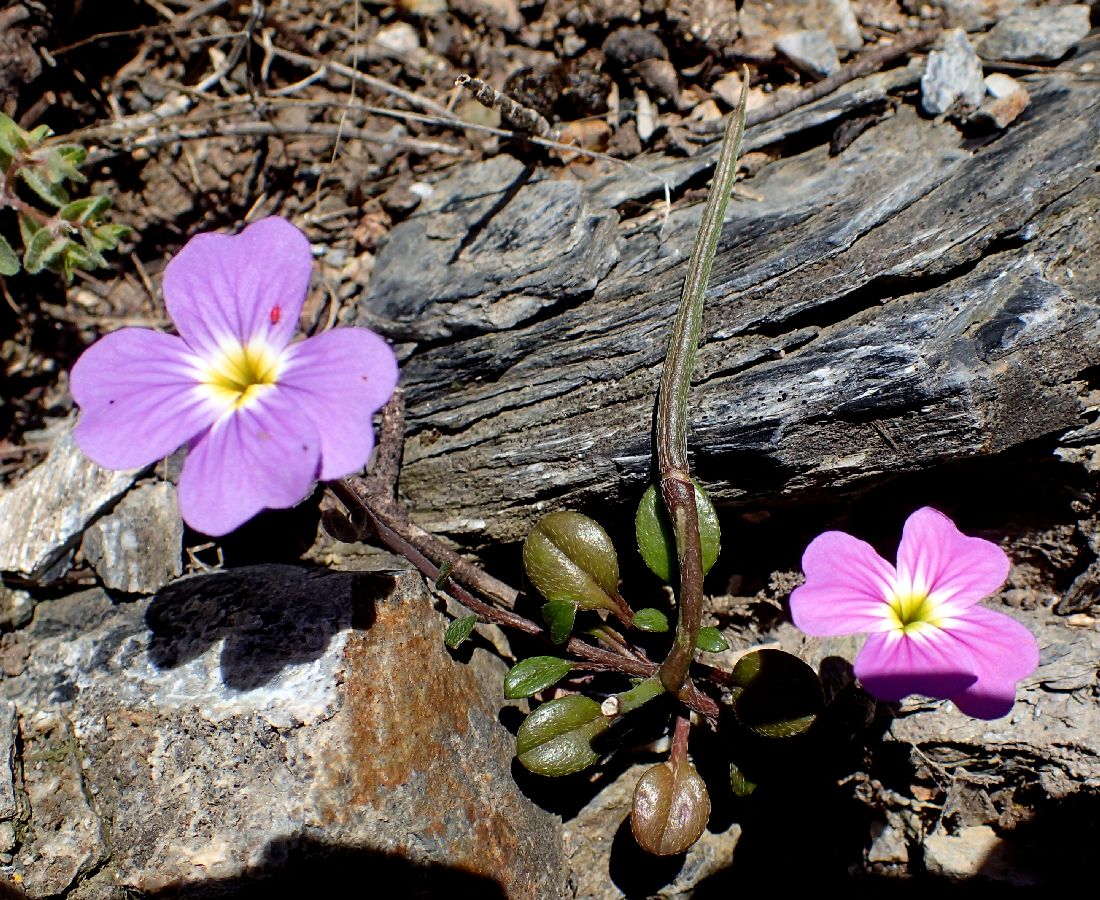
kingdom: Plantae
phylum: Tracheophyta
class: Magnoliopsida
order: Brassicales
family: Brassicaceae
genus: Malcolmia
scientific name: Malcolmia flexuosa
